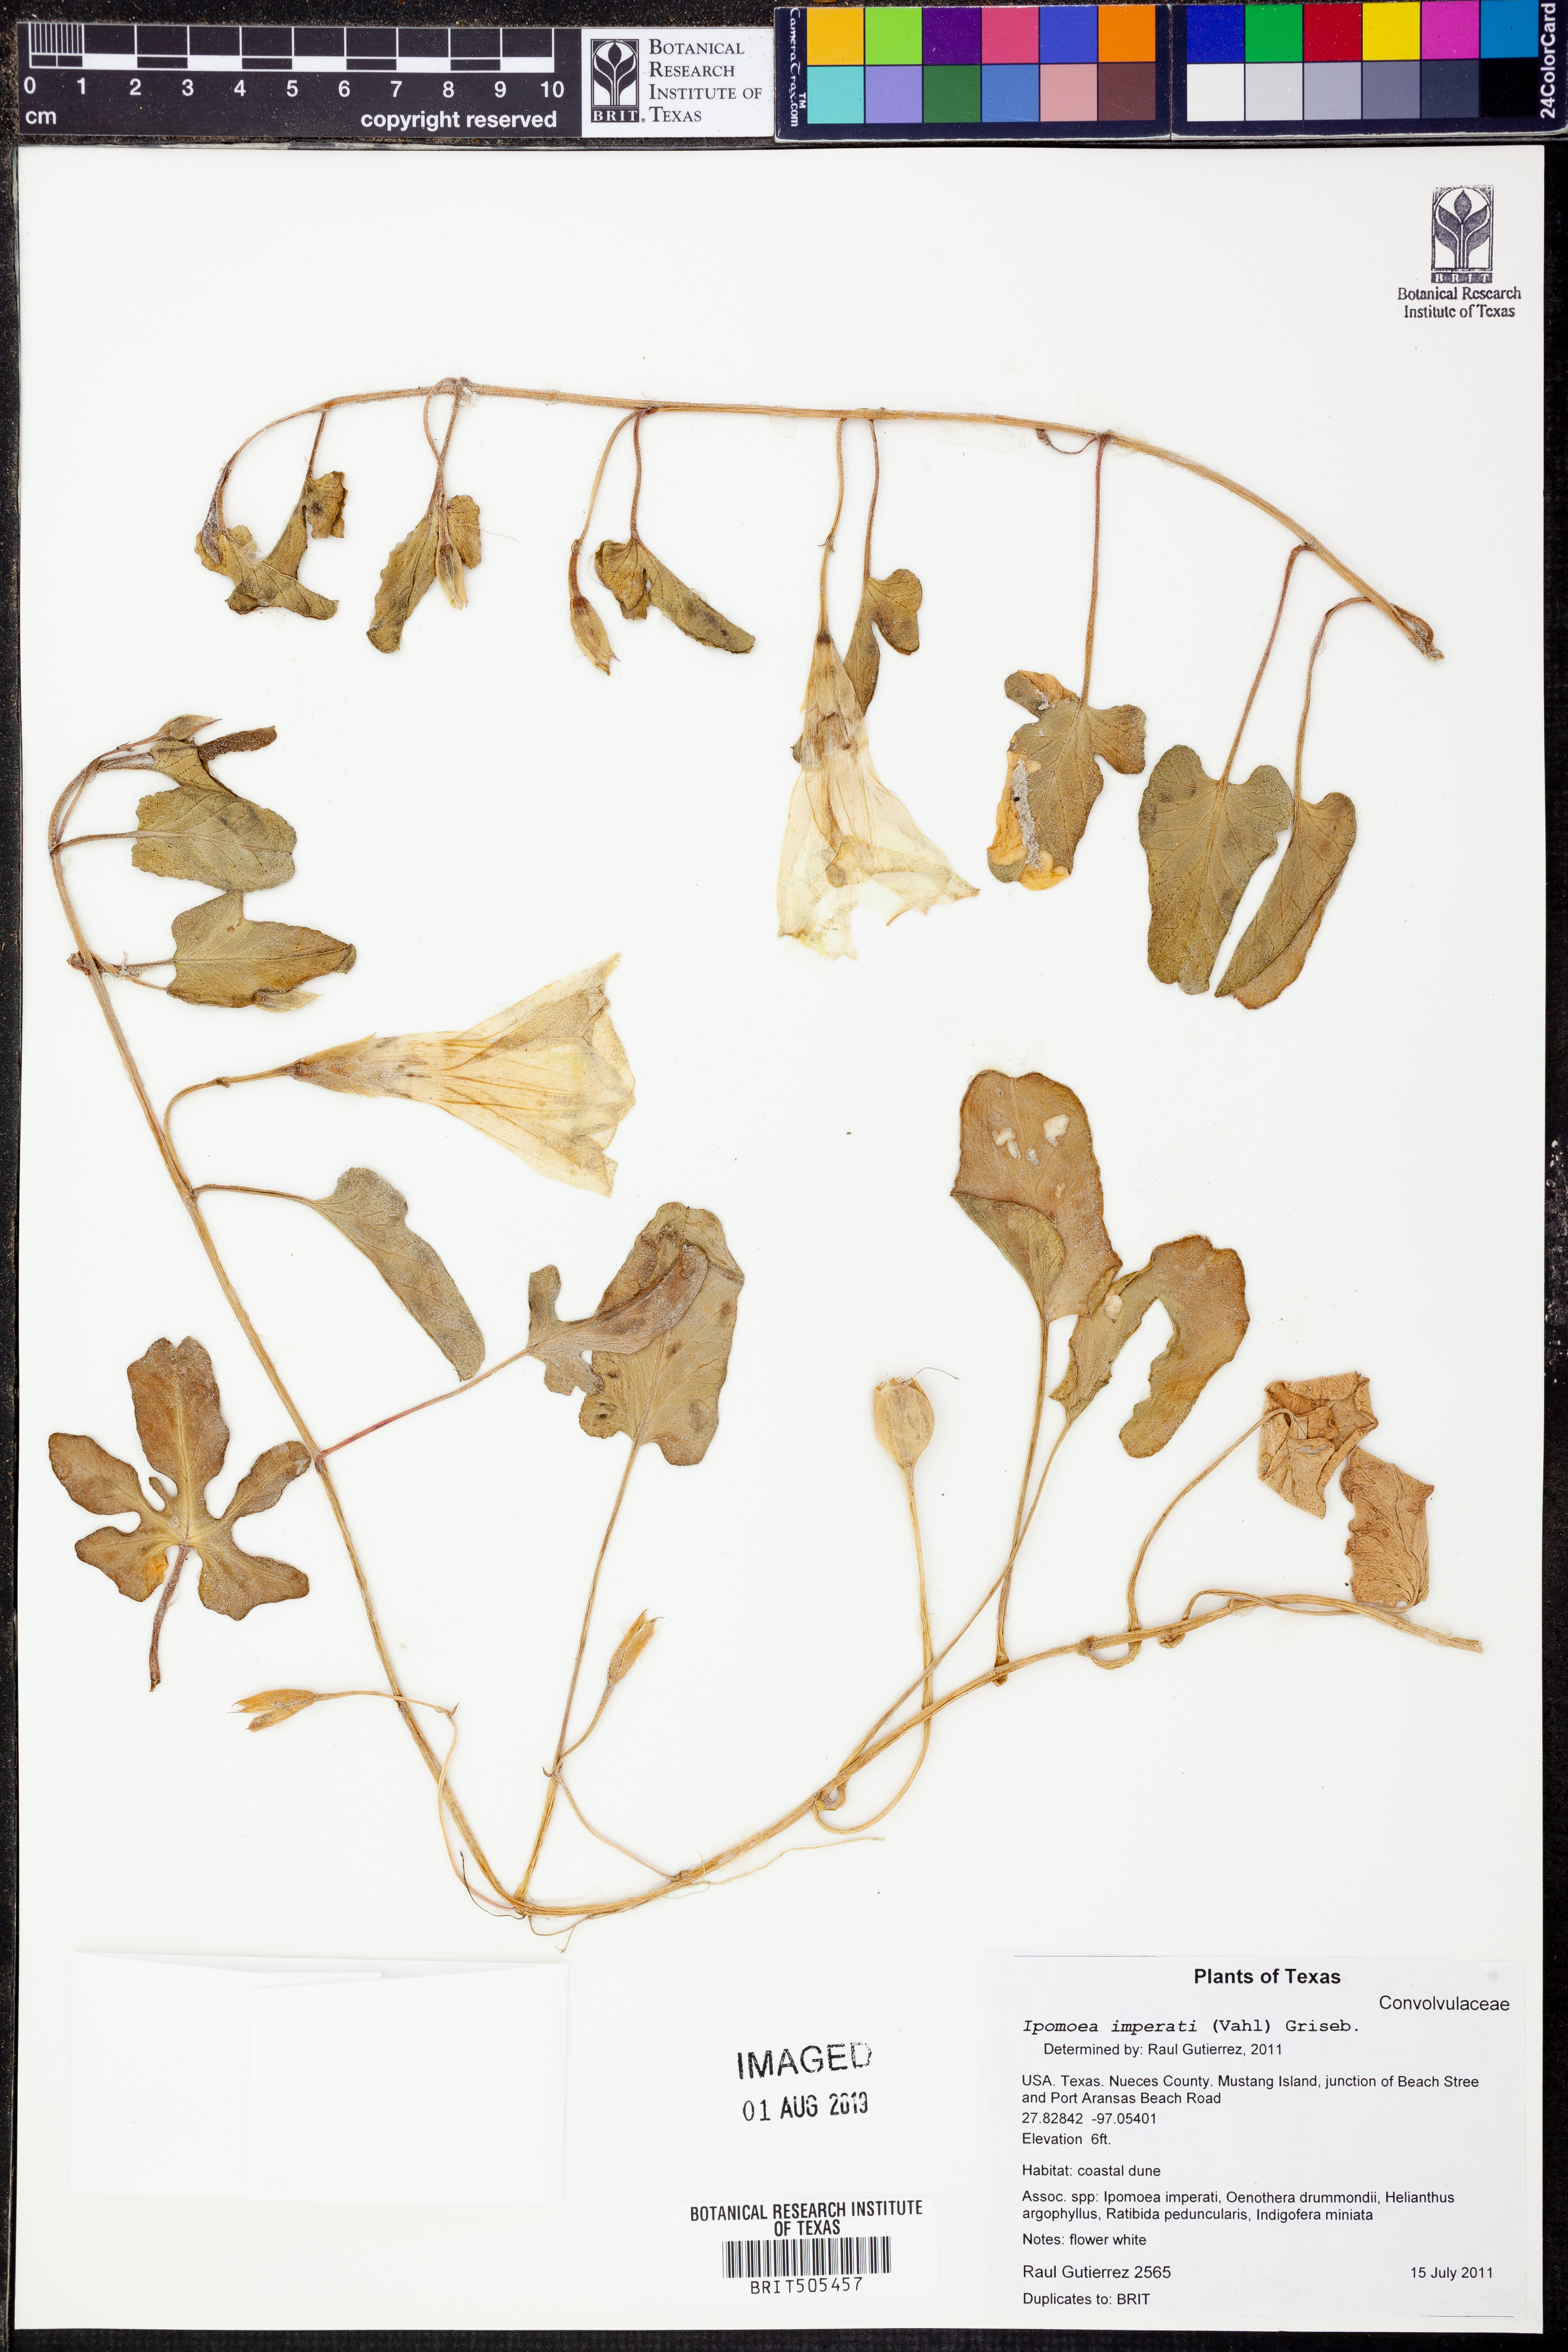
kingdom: Plantae
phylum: Tracheophyta
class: Magnoliopsida
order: Solanales
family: Convolvulaceae
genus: Ipomoea
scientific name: Ipomoea imperati
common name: Fiddle-leaf morning-glory
